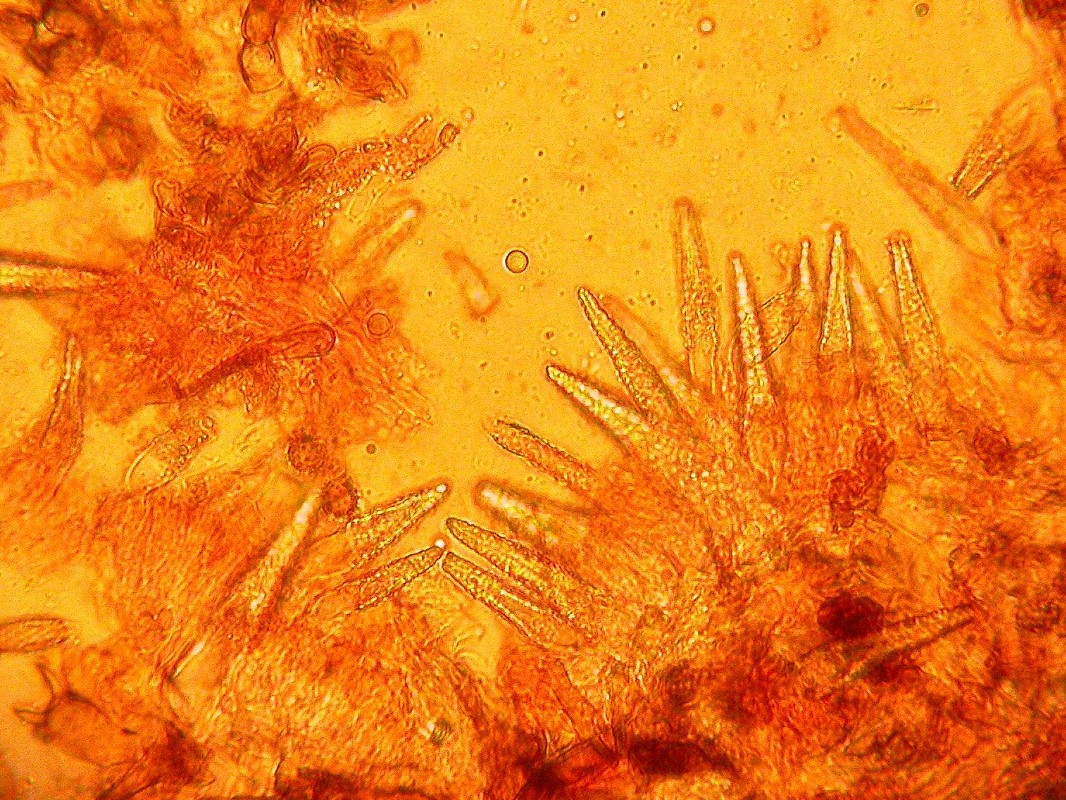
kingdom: Fungi
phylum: Basidiomycota
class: Agaricomycetes
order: Polyporales
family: Meruliaceae
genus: Scopuloides
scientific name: Scopuloides rimosa
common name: dughinde
